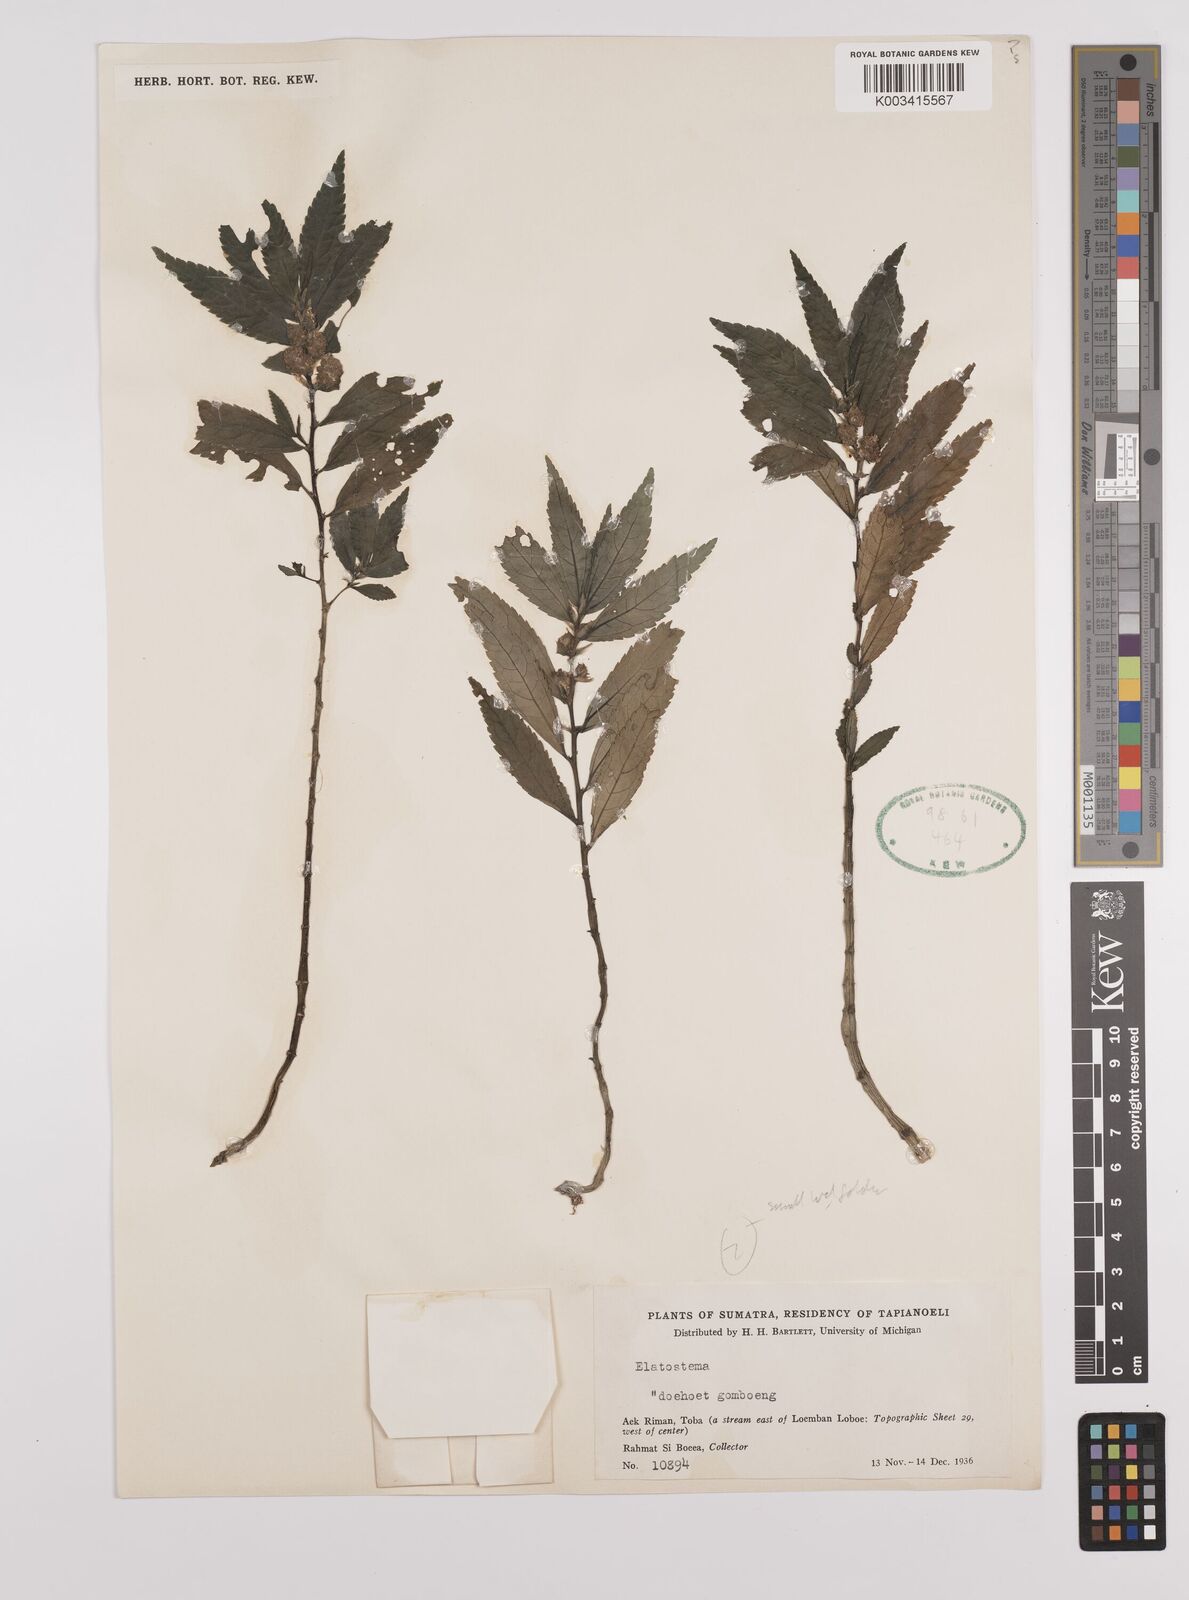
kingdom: Plantae
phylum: Tracheophyta
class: Magnoliopsida
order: Rosales
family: Urticaceae
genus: Elatostema
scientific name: Elatostema
